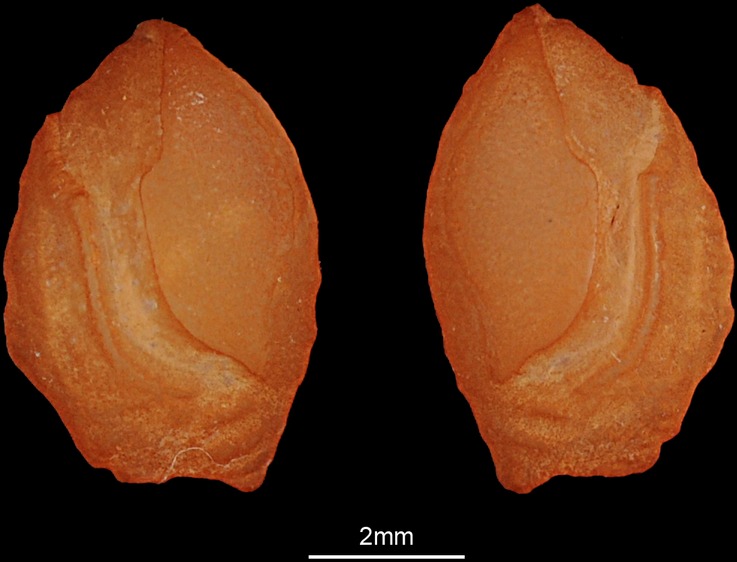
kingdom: Animalia
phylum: Chordata
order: Perciformes
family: Lethrinidae
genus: Lethrinus
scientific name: Lethrinus miniatus
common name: Trumpet emperor
